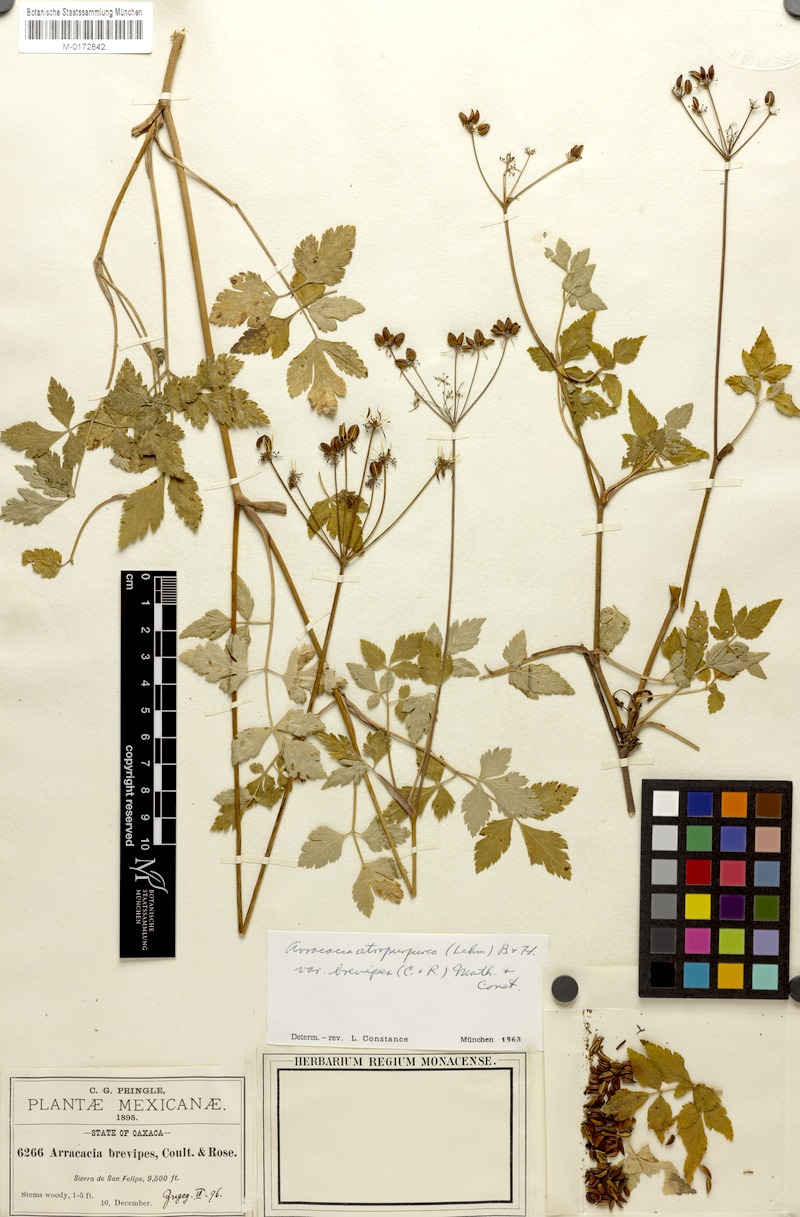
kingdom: Plantae
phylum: Tracheophyta
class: Magnoliopsida
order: Apiales
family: Apiaceae
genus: Arracacia
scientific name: Arracacia atropurpurea
